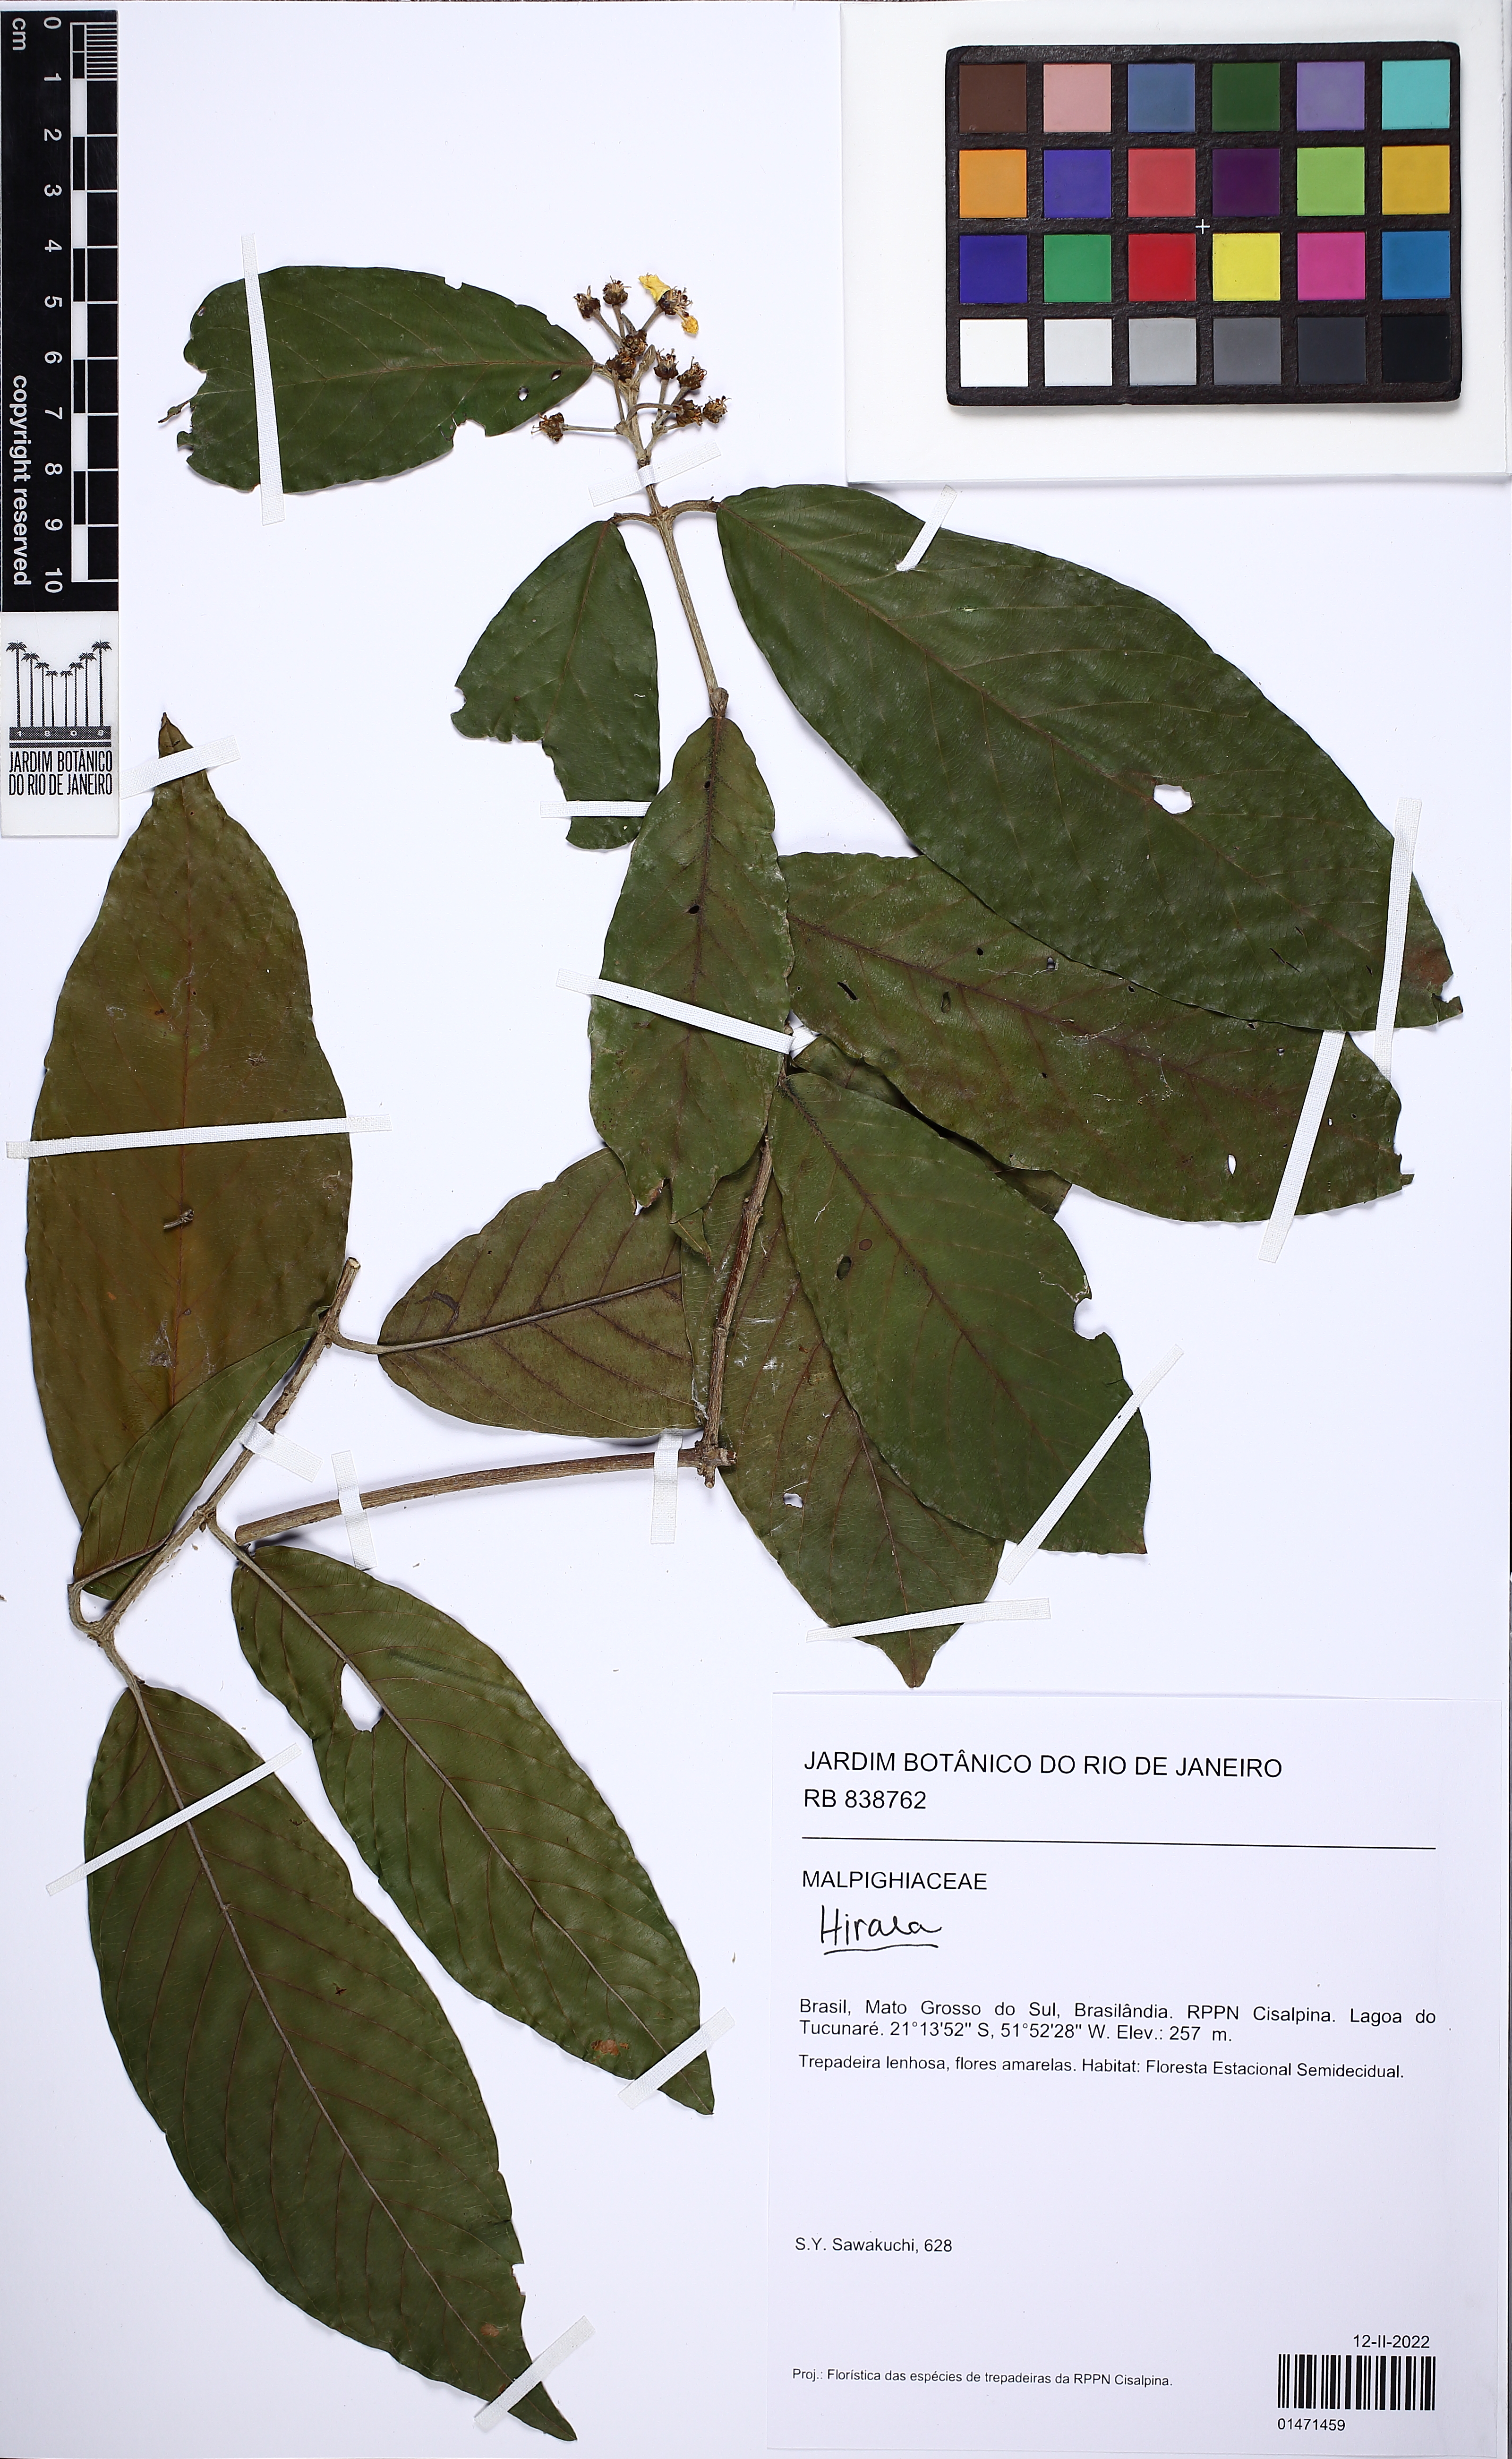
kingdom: Plantae
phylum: Tracheophyta
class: Magnoliopsida
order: Malpighiales
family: Malpighiaceae
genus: Hiraea
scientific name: Hiraea
